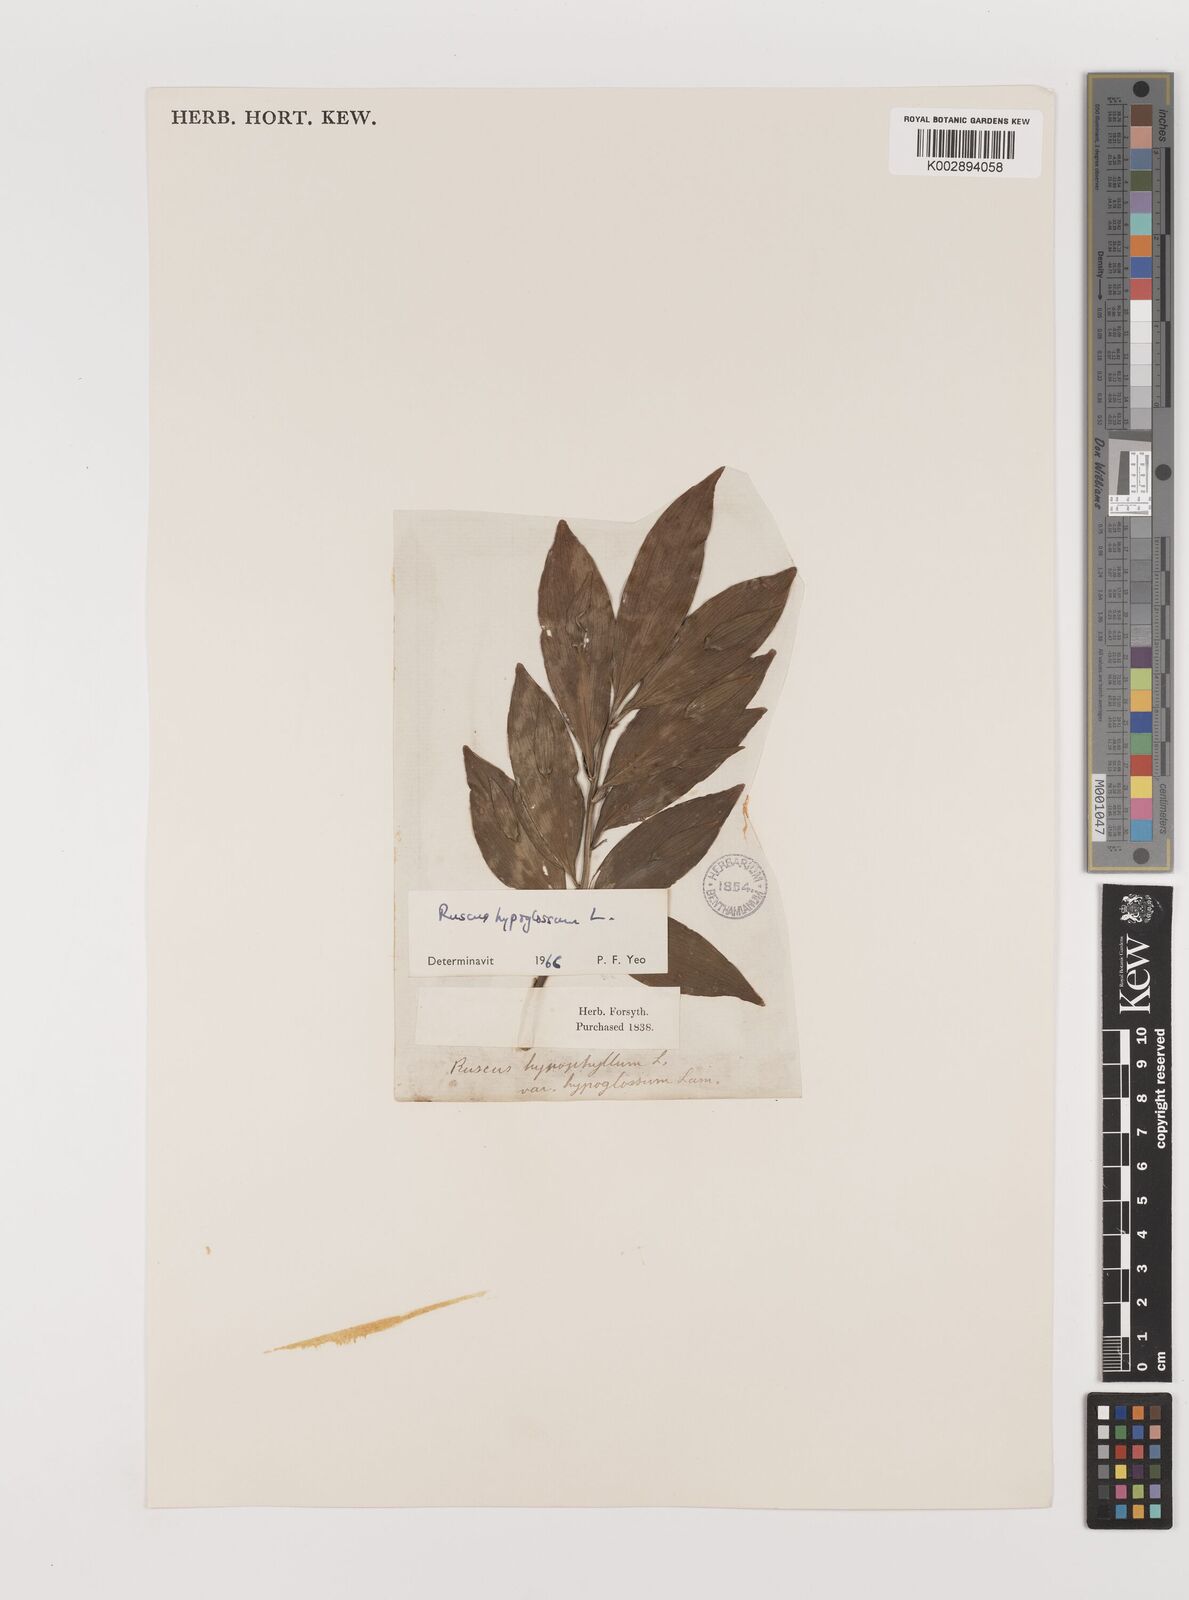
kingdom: Plantae
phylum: Tracheophyta
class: Liliopsida
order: Asparagales
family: Asparagaceae
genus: Ruscus
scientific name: Ruscus hypoglossum
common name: Spineless butcher's-broom
